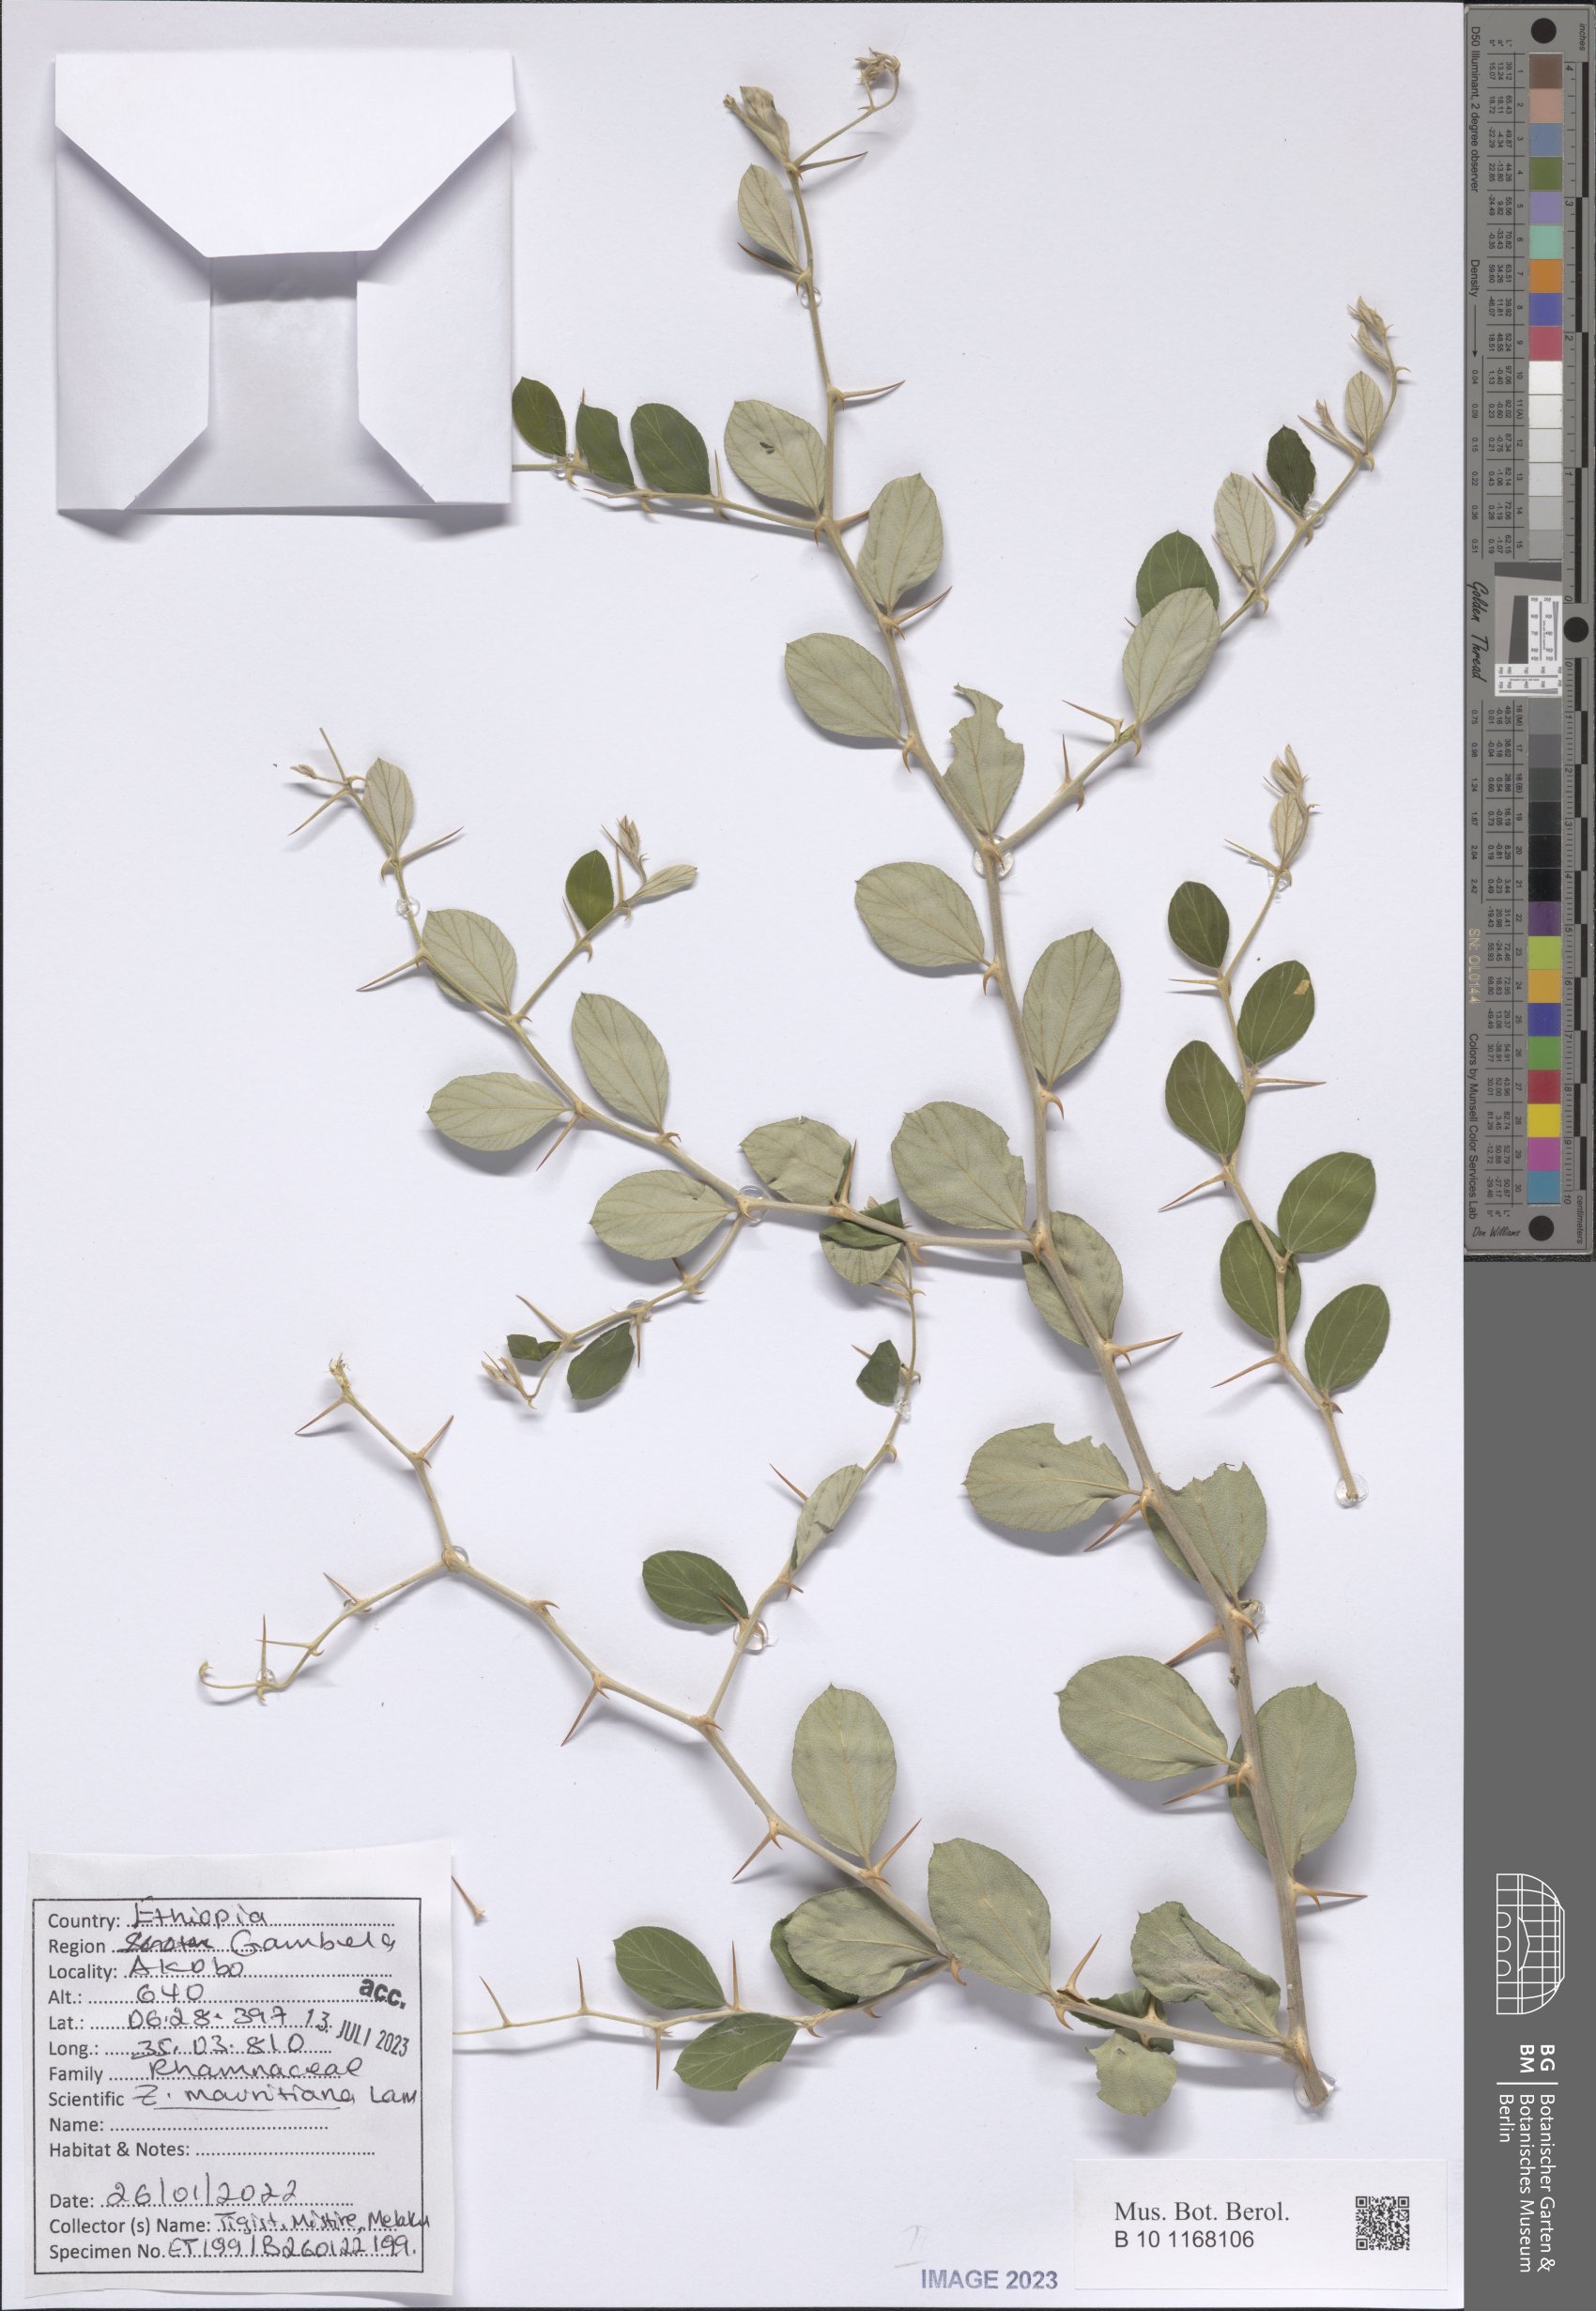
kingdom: Plantae
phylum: Tracheophyta
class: Magnoliopsida
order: Rosales
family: Rhamnaceae
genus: Ziziphus
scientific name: Ziziphus mauritiana
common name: Indian jujube
